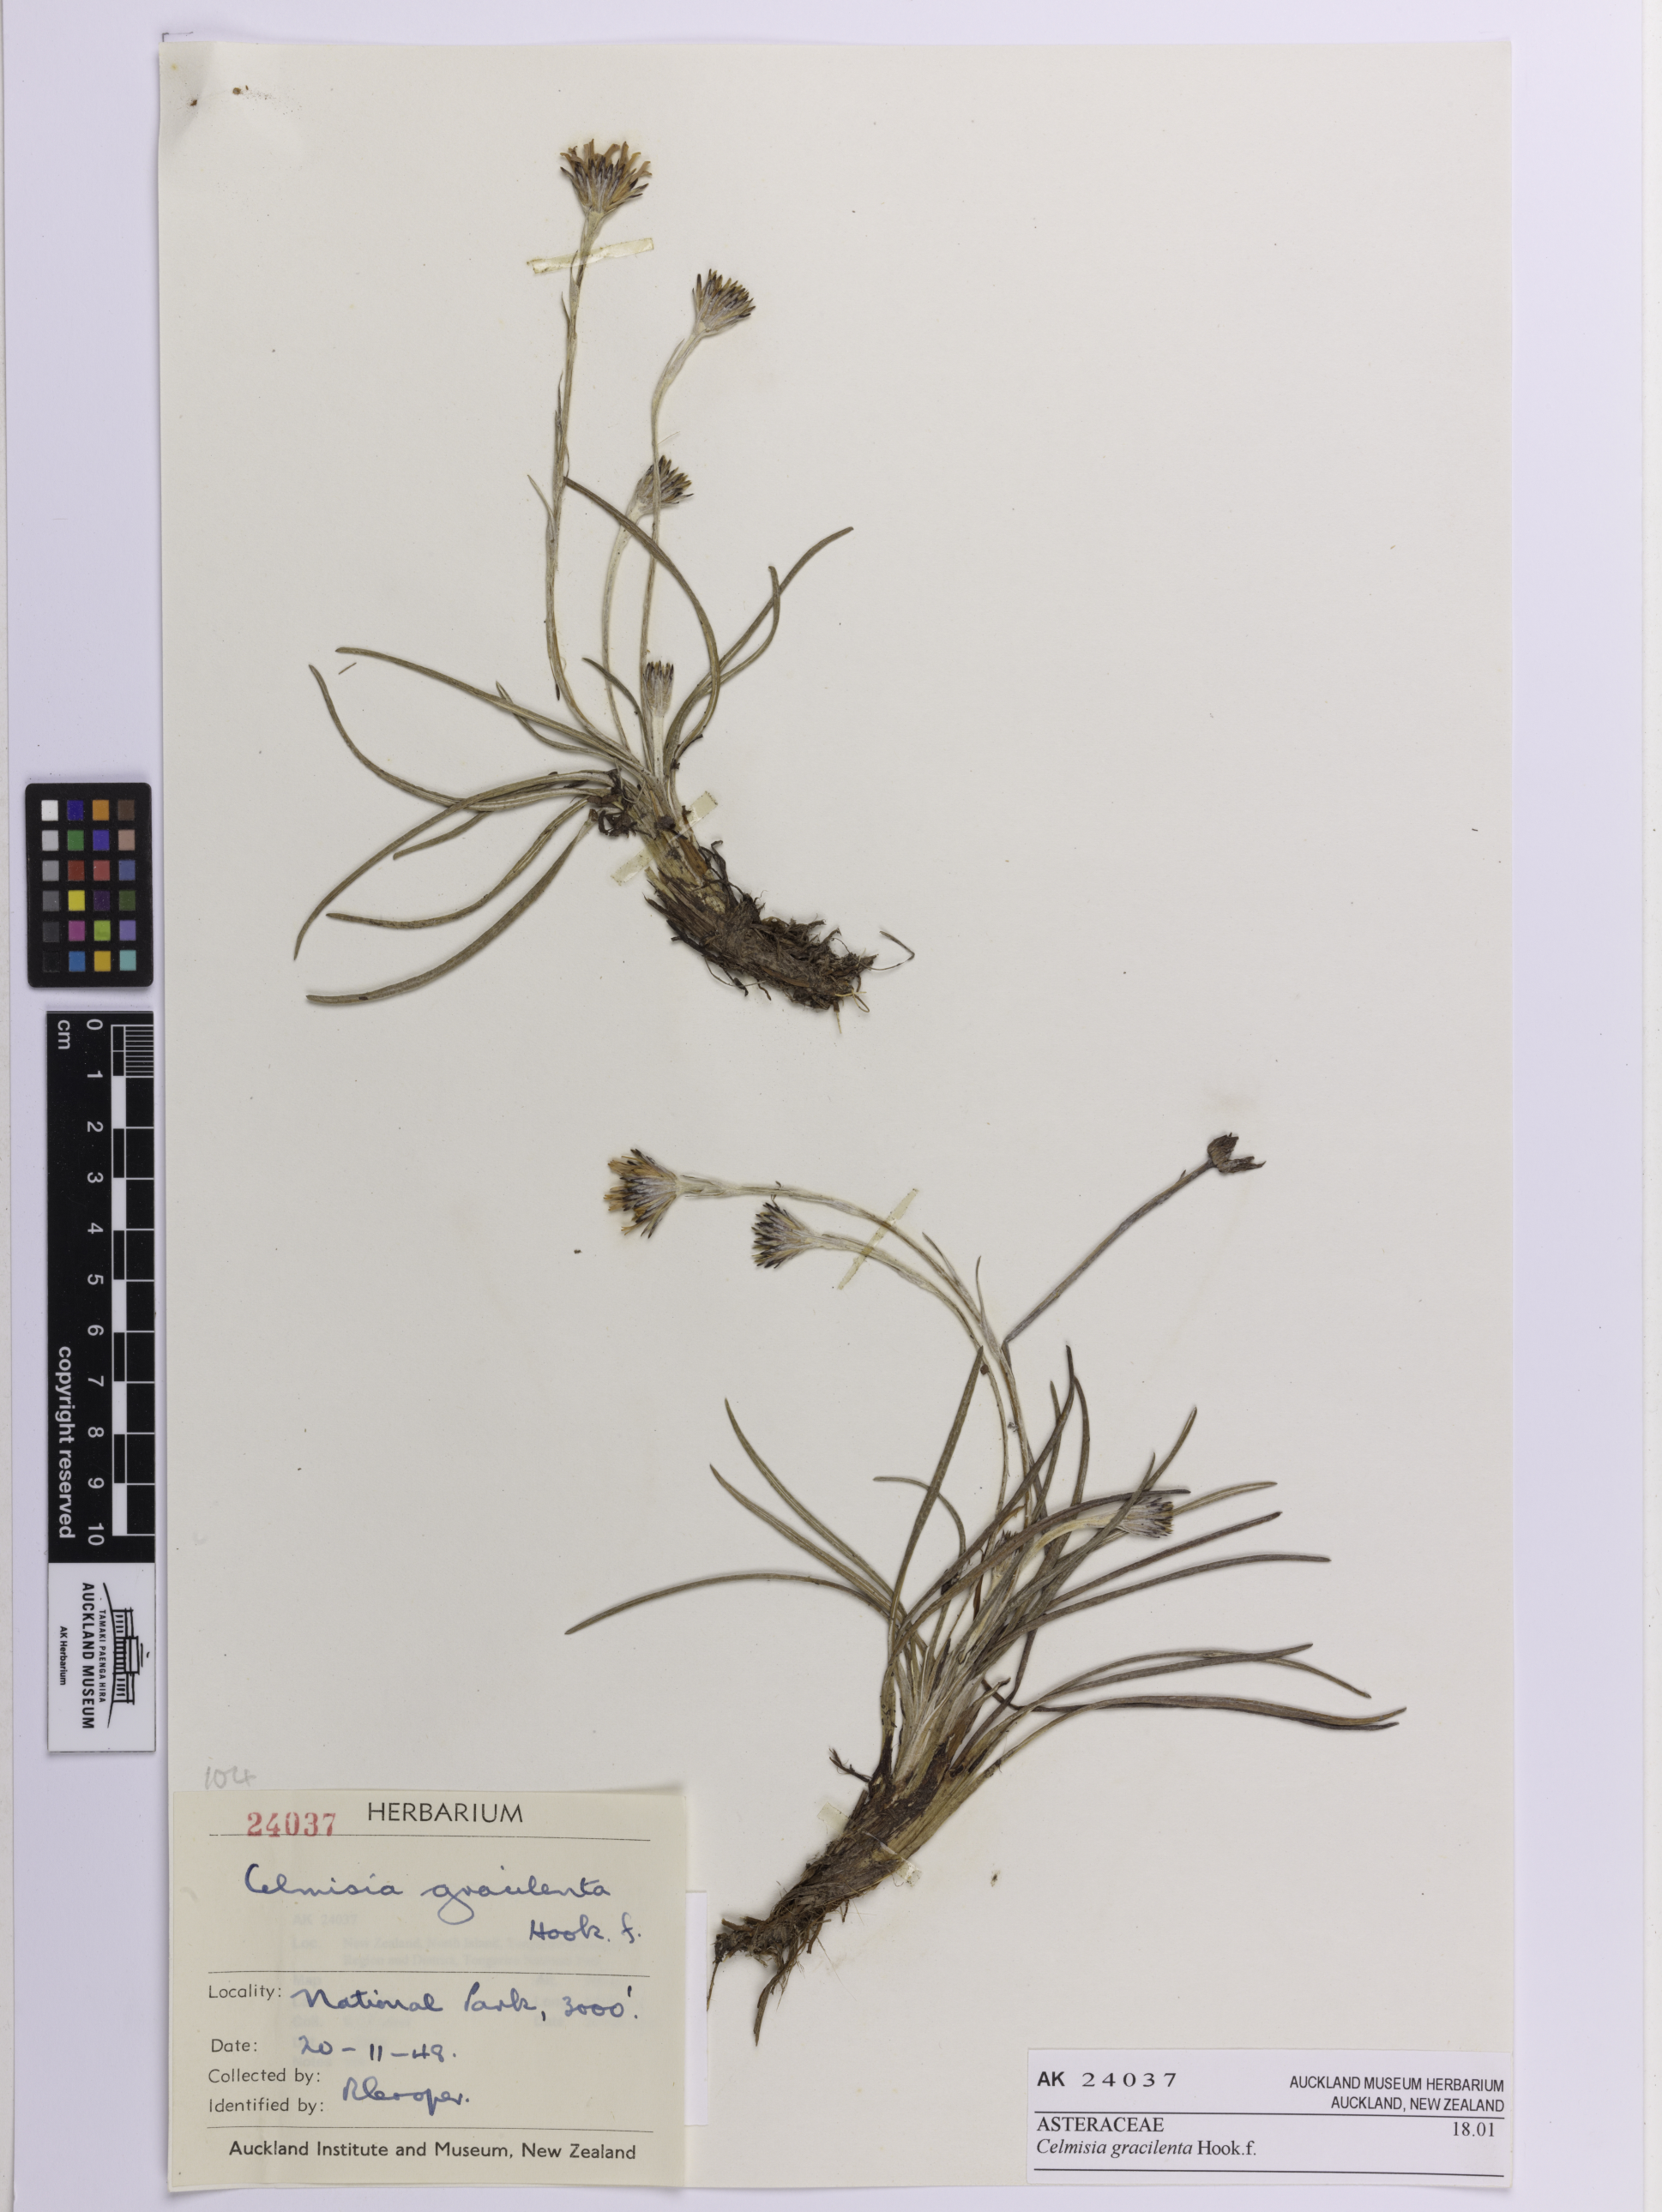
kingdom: Plantae
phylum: Tracheophyta
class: Magnoliopsida
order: Asterales
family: Asteraceae
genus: Celmisia
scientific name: Celmisia gracilenta
